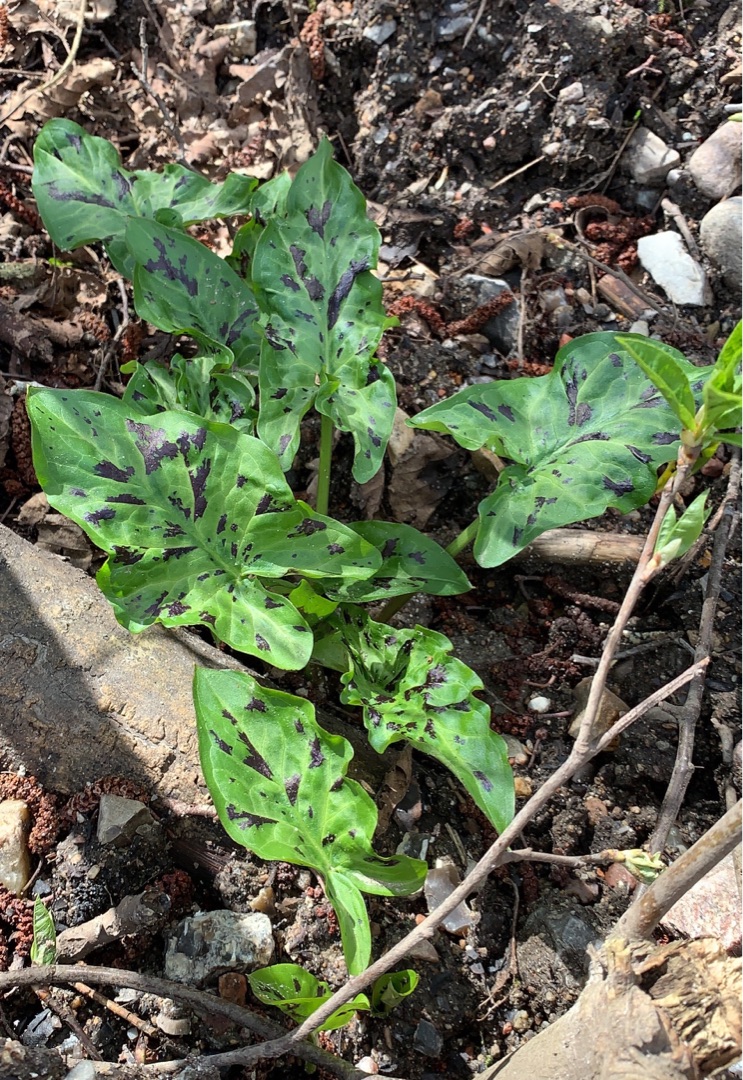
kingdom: Plantae
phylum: Tracheophyta
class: Liliopsida
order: Alismatales
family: Araceae
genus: Arum
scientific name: Arum maculatum
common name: Plettet arum
